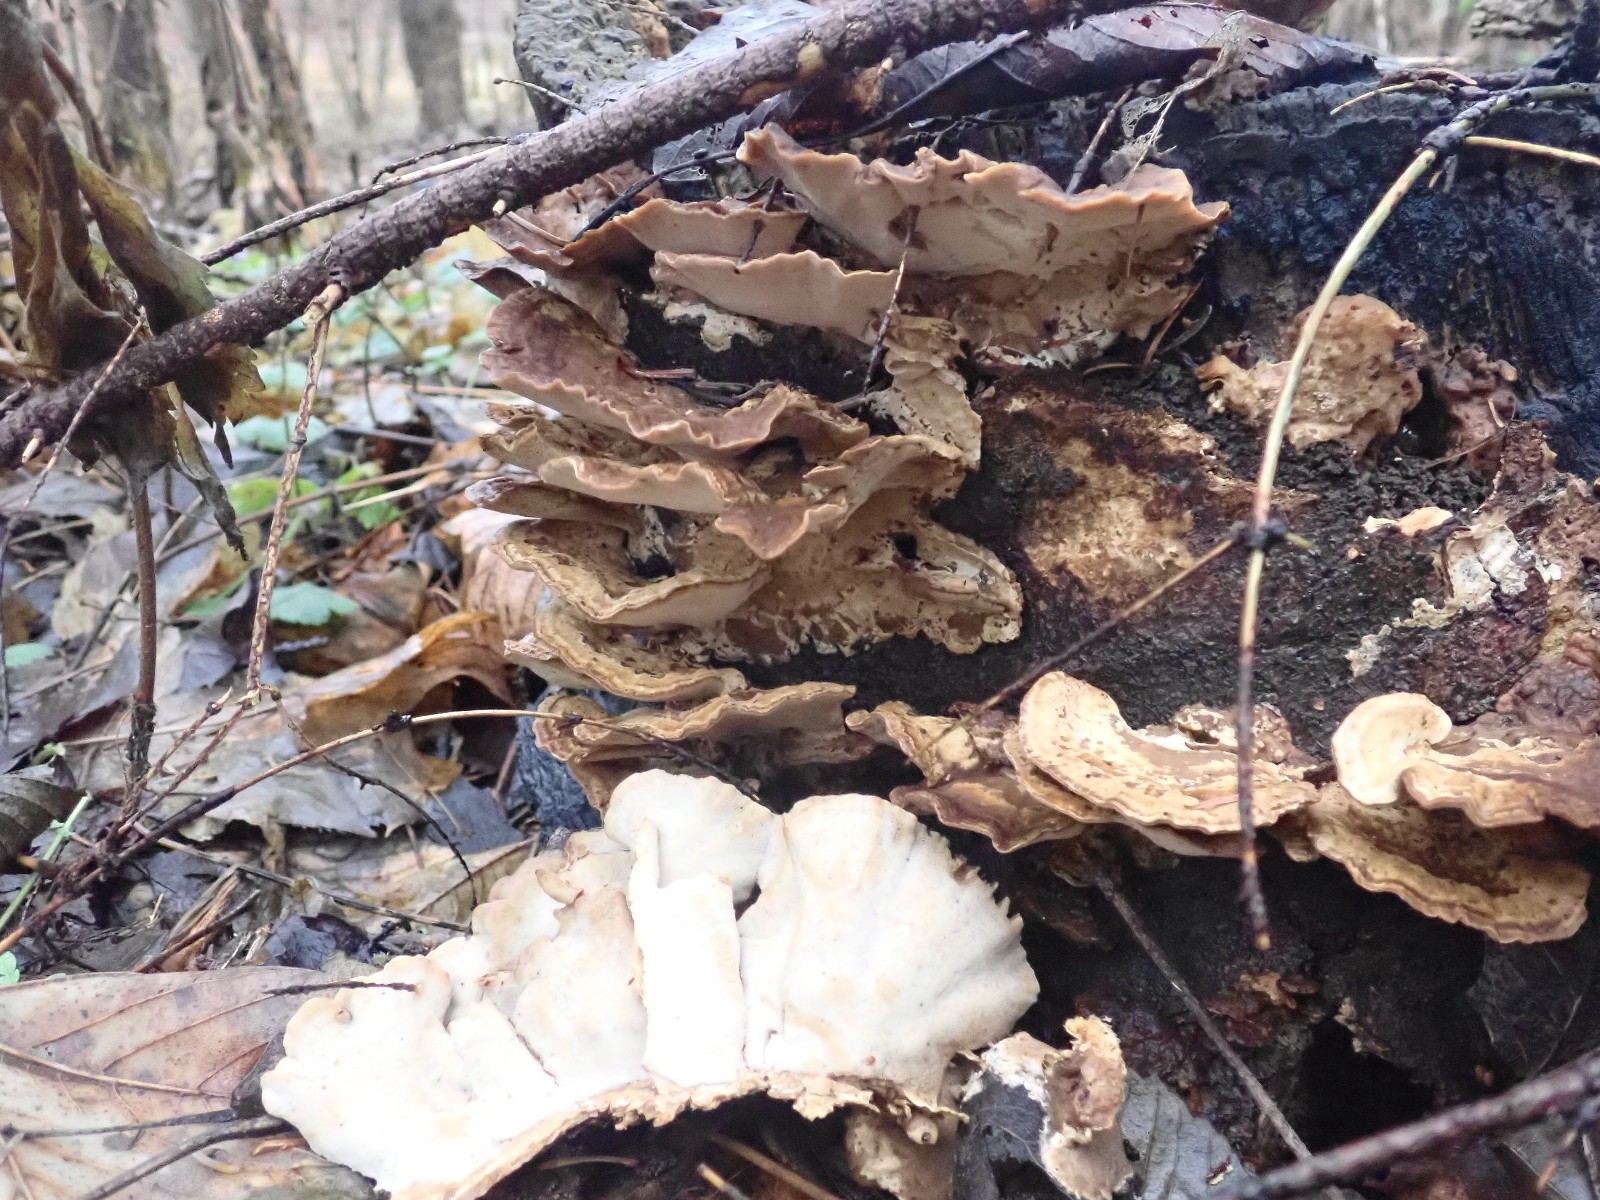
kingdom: Fungi
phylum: Basidiomycota
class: Agaricomycetes
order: Polyporales
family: Phanerochaetaceae
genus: Bjerkandera
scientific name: Bjerkandera fumosa
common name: grågul sodporesvamp
